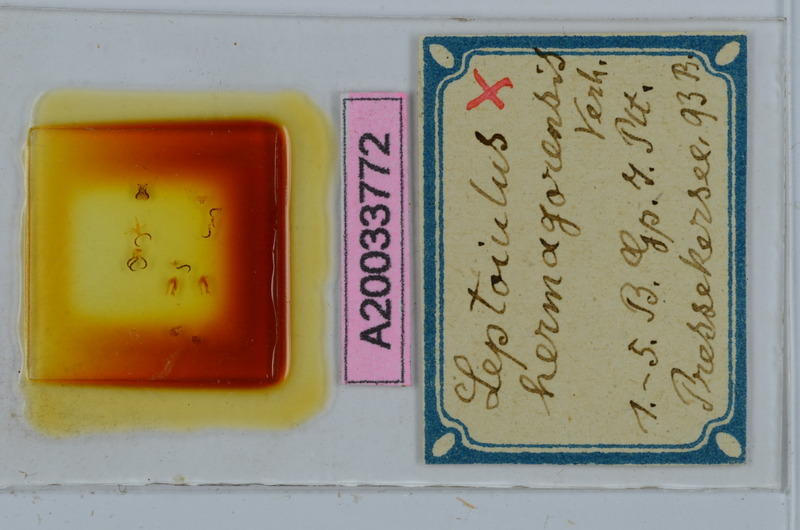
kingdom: Animalia
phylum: Arthropoda
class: Diplopoda
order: Julida
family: Julidae
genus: Leptoiulus
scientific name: Leptoiulus vagabundus
